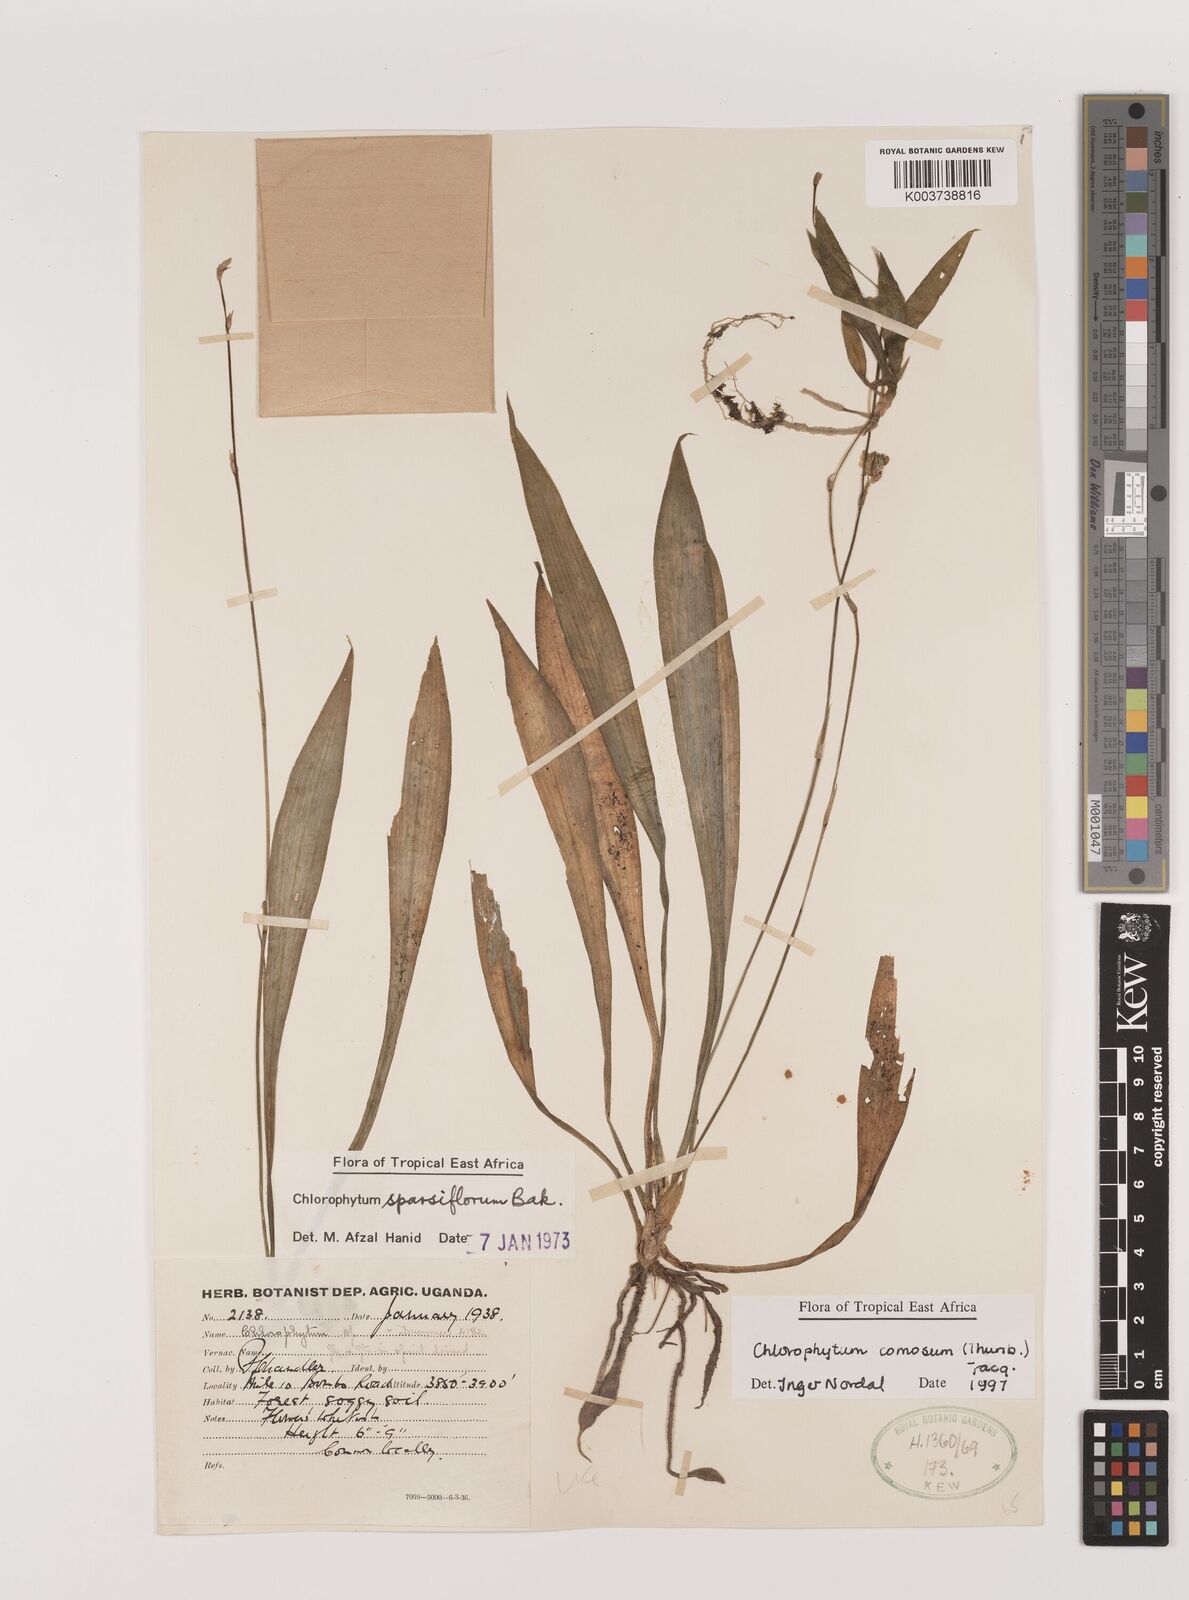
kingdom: Plantae
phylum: Tracheophyta
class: Liliopsida
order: Asparagales
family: Asparagaceae
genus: Chlorophytum
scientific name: Chlorophytum comosum
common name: Spider plant
